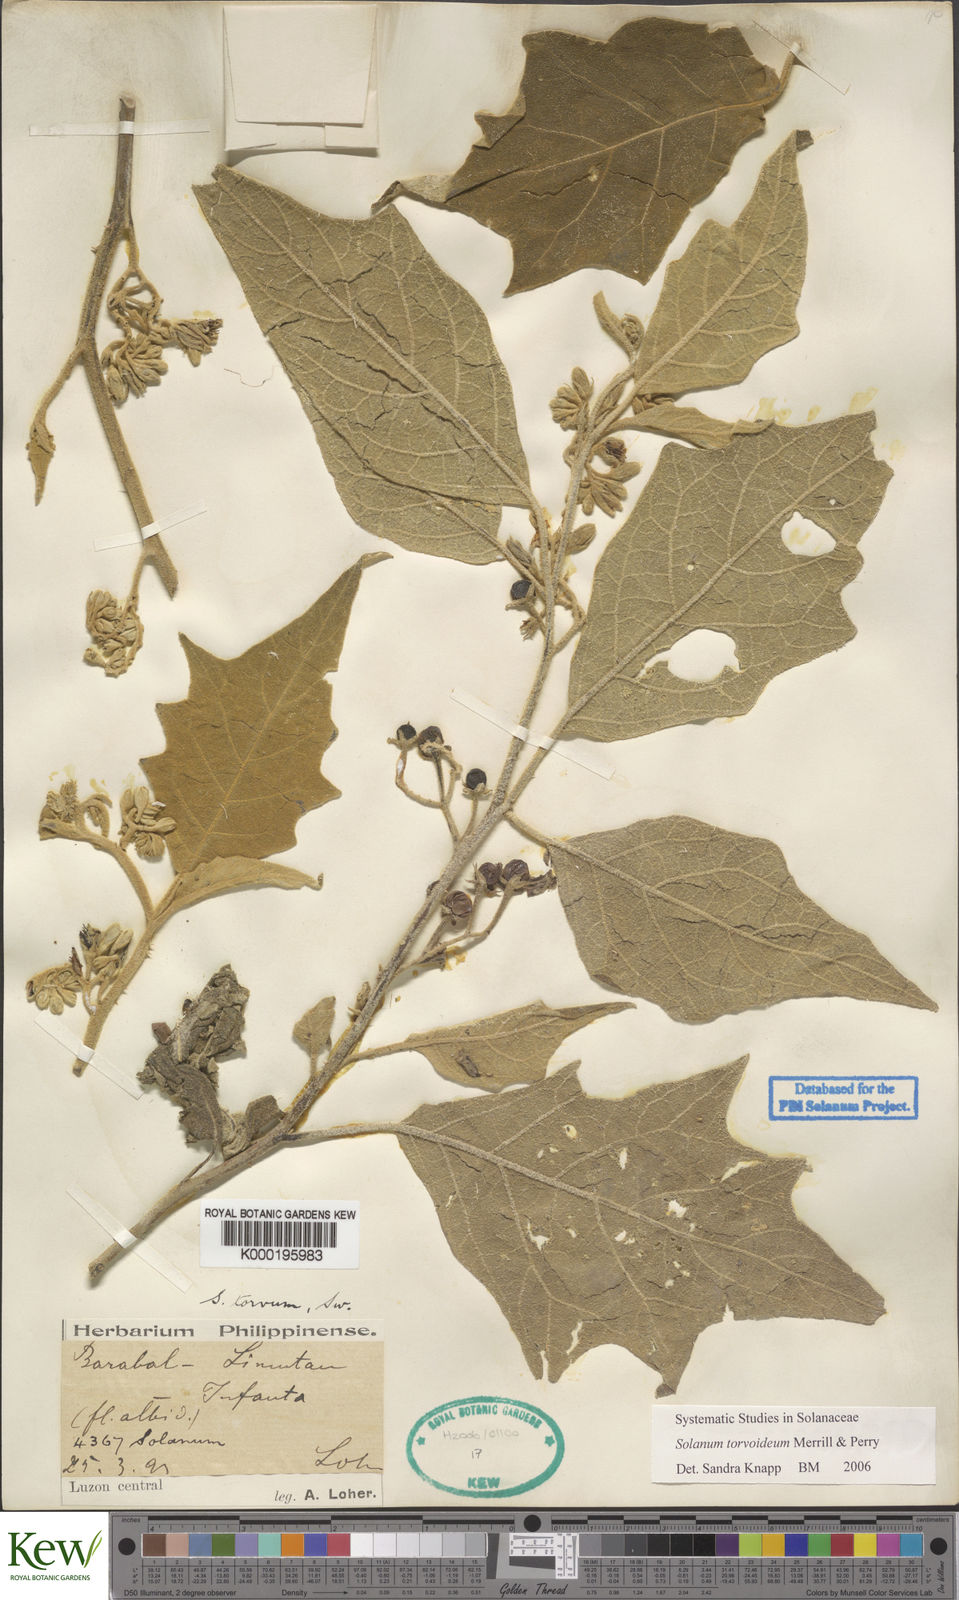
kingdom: Plantae
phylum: Tracheophyta
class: Magnoliopsida
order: Solanales
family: Solanaceae
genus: Solanum
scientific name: Solanum torvoideum
